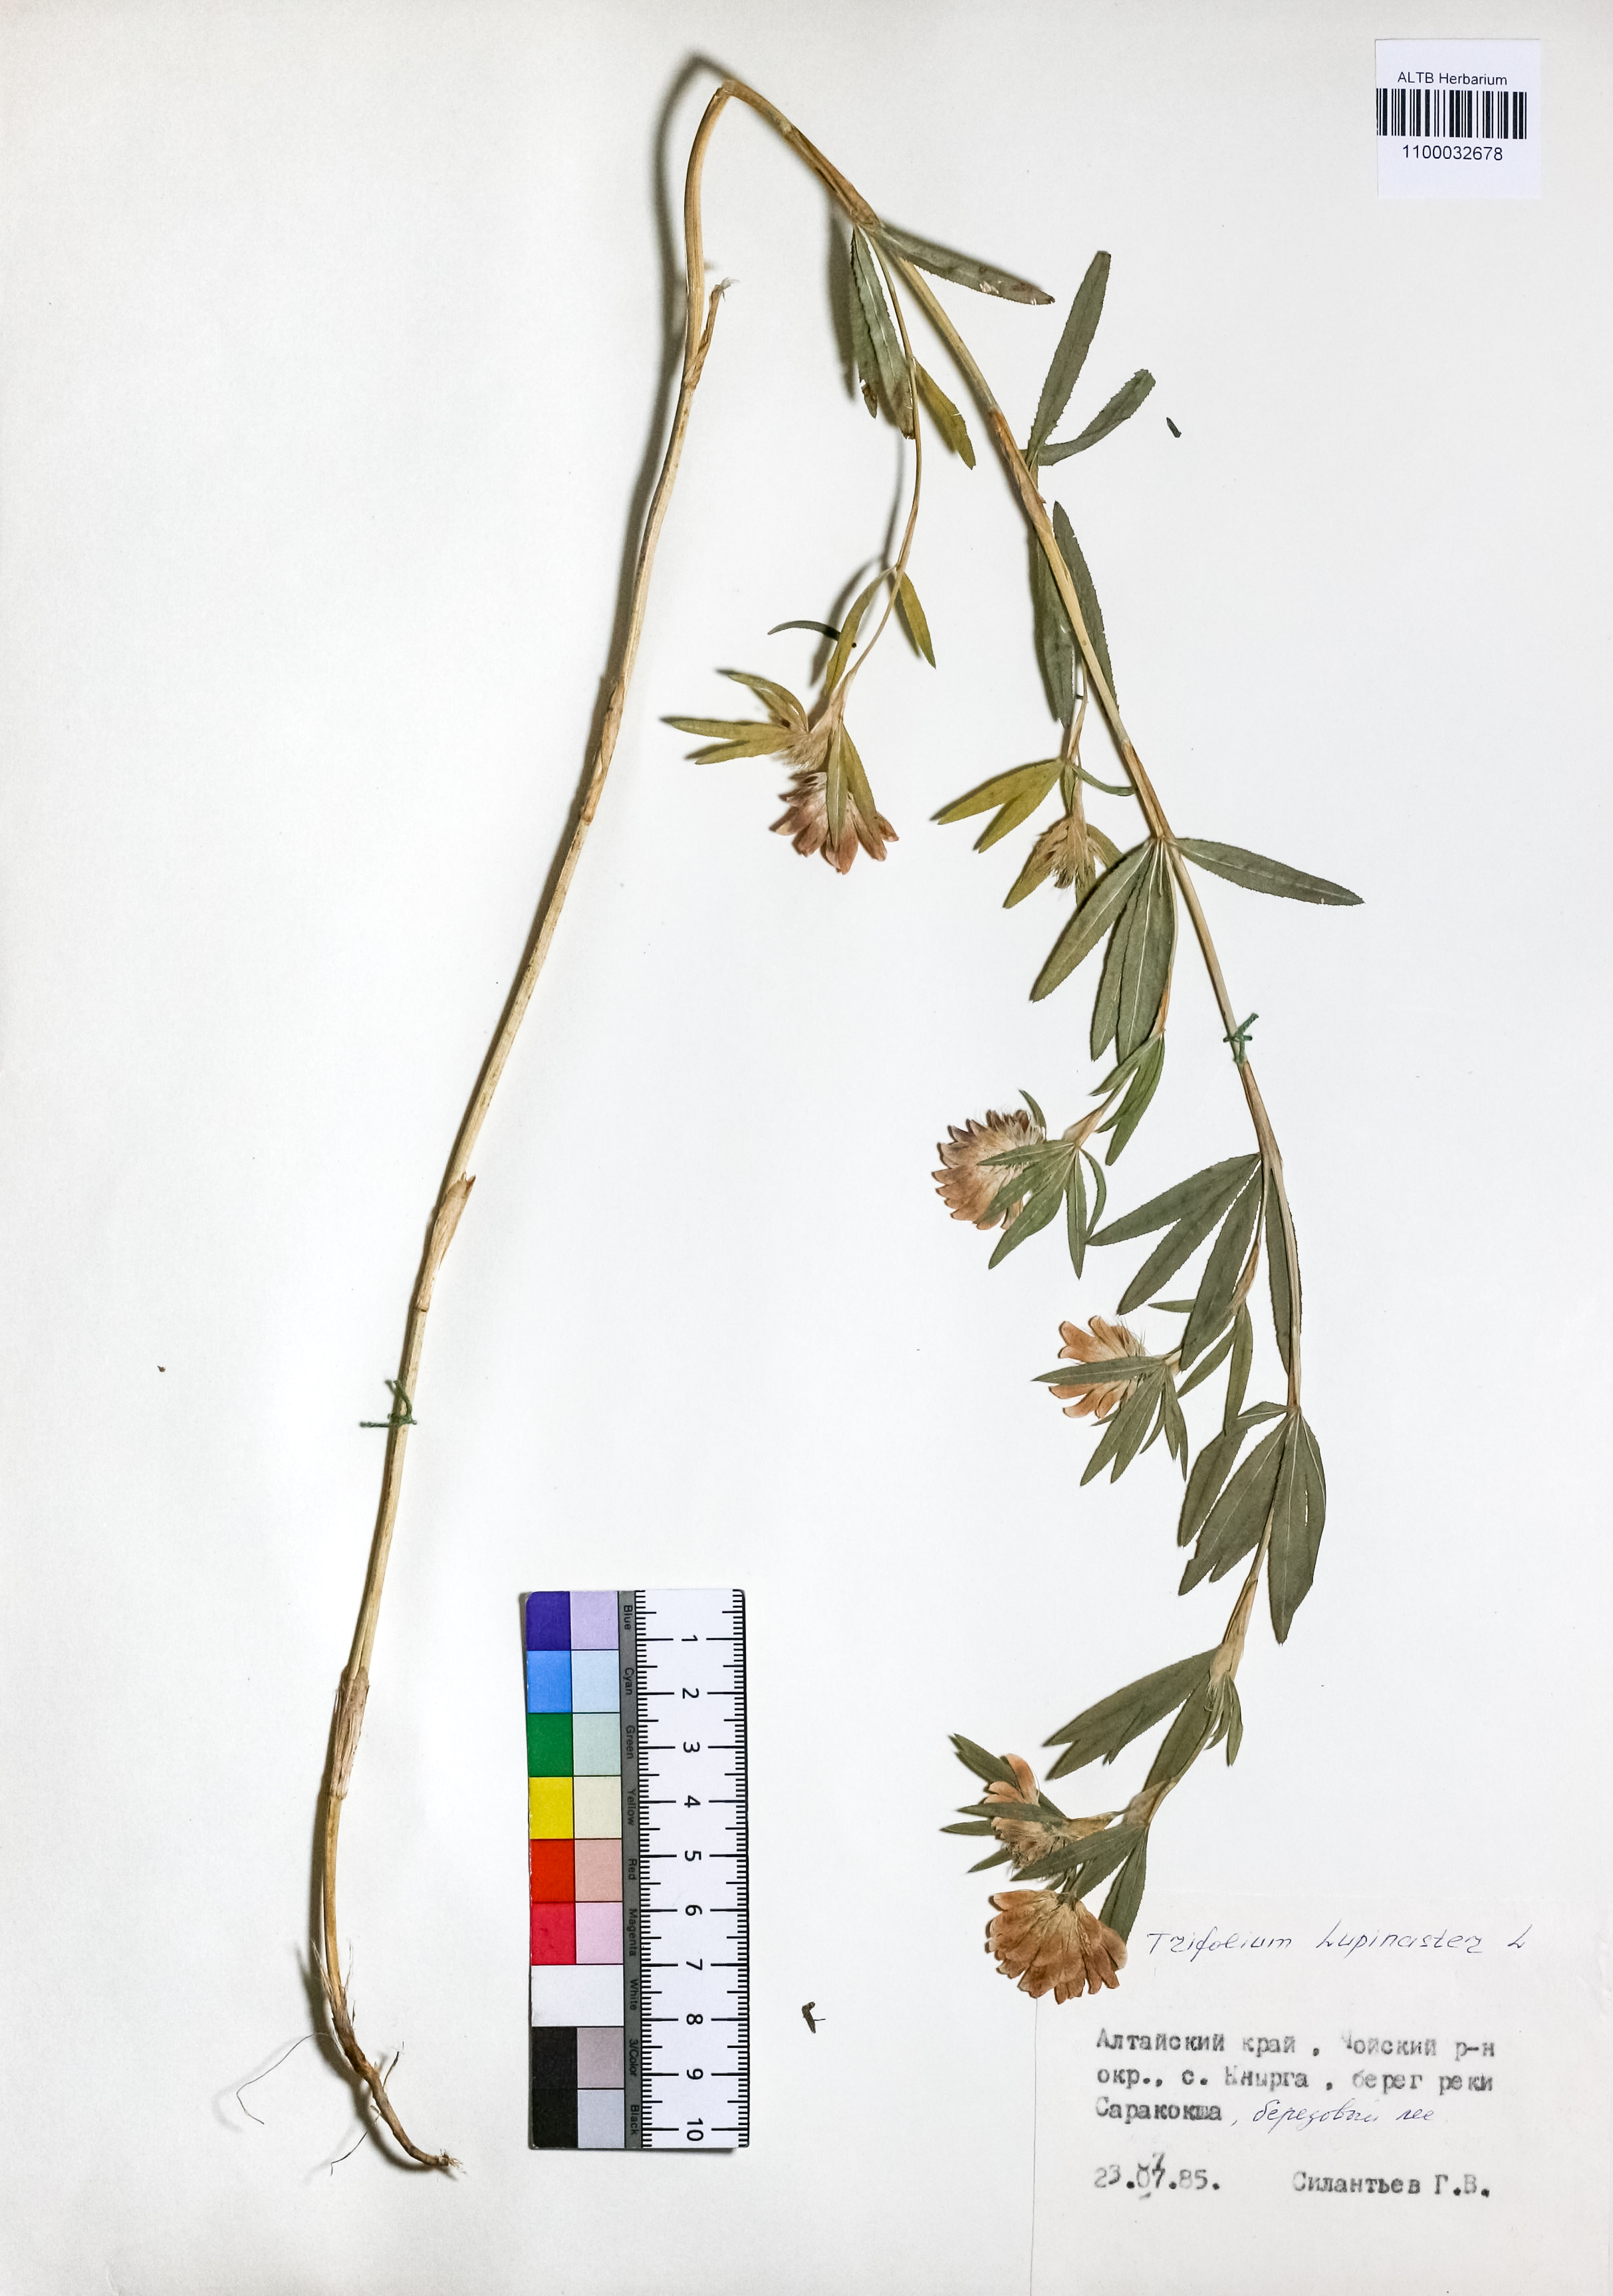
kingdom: Plantae
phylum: Tracheophyta
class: Magnoliopsida
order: Fabales
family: Fabaceae
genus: Trifolium
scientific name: Trifolium lupinaster
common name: Lupine clover
